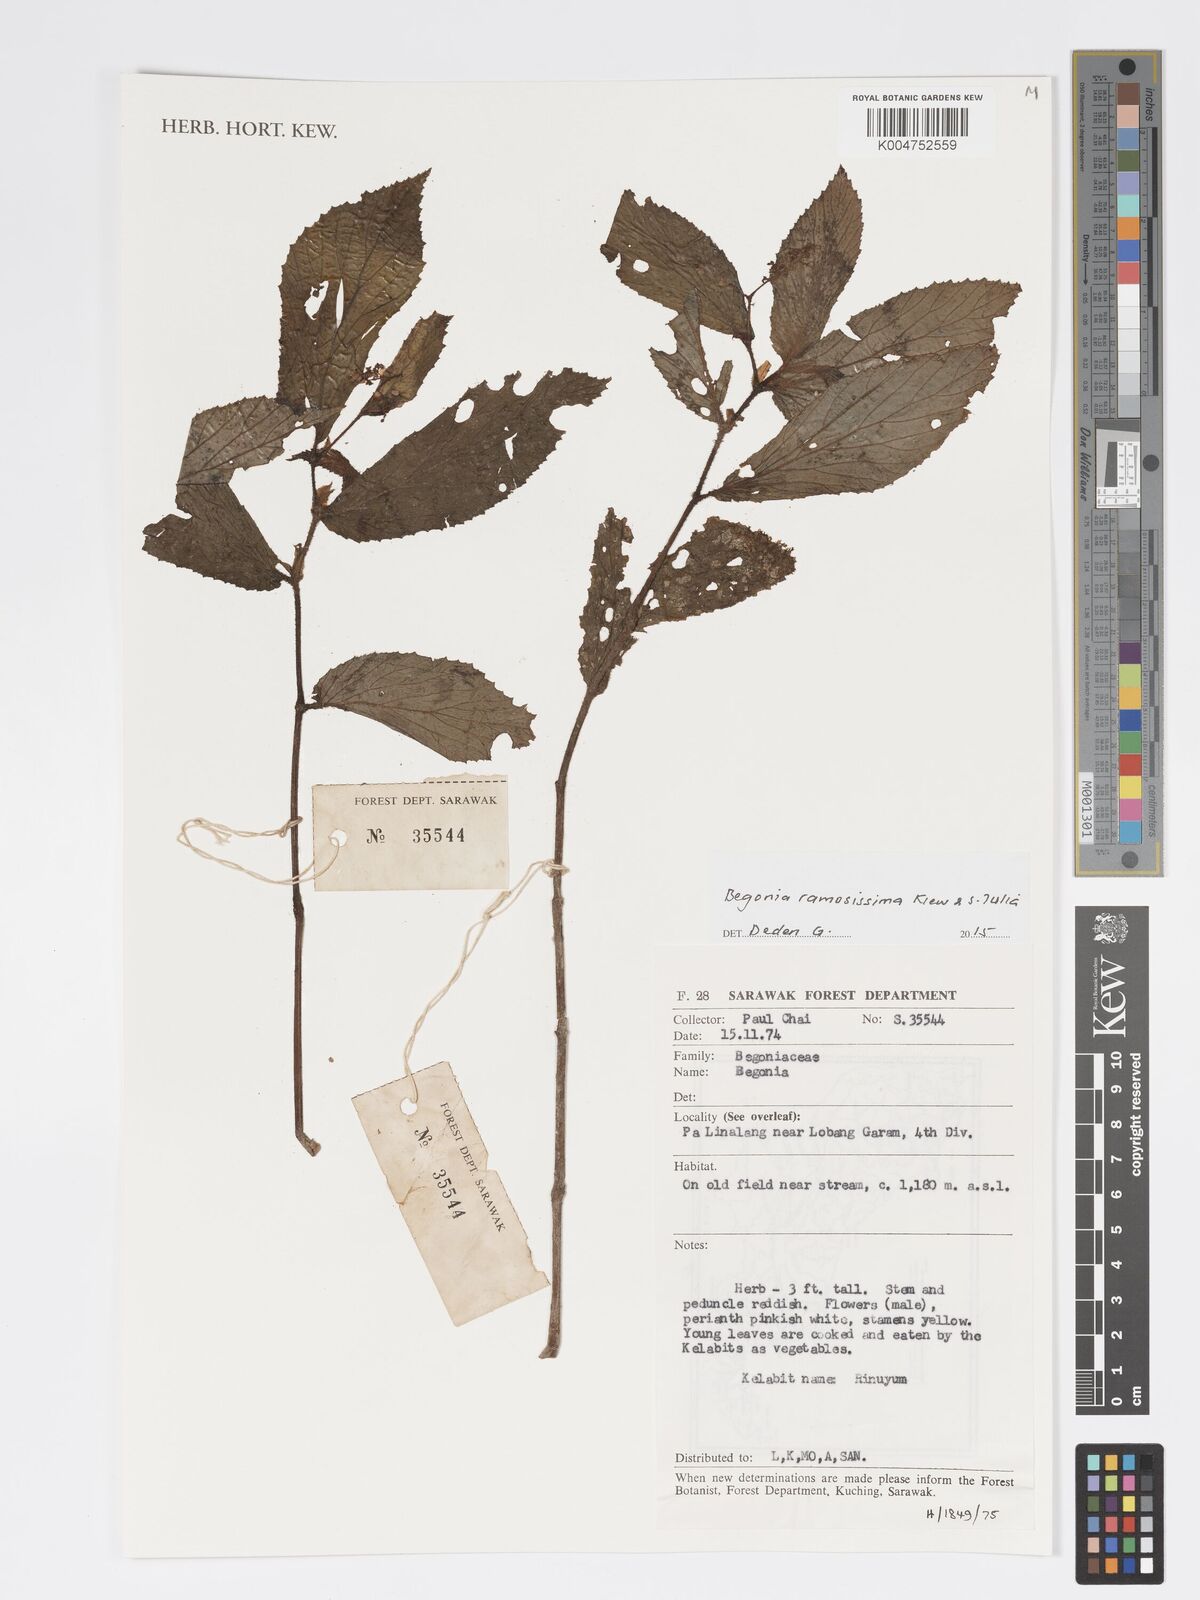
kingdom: Plantae
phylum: Tracheophyta
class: Magnoliopsida
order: Cucurbitales
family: Begoniaceae
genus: Begonia
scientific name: Begonia ramosissima
